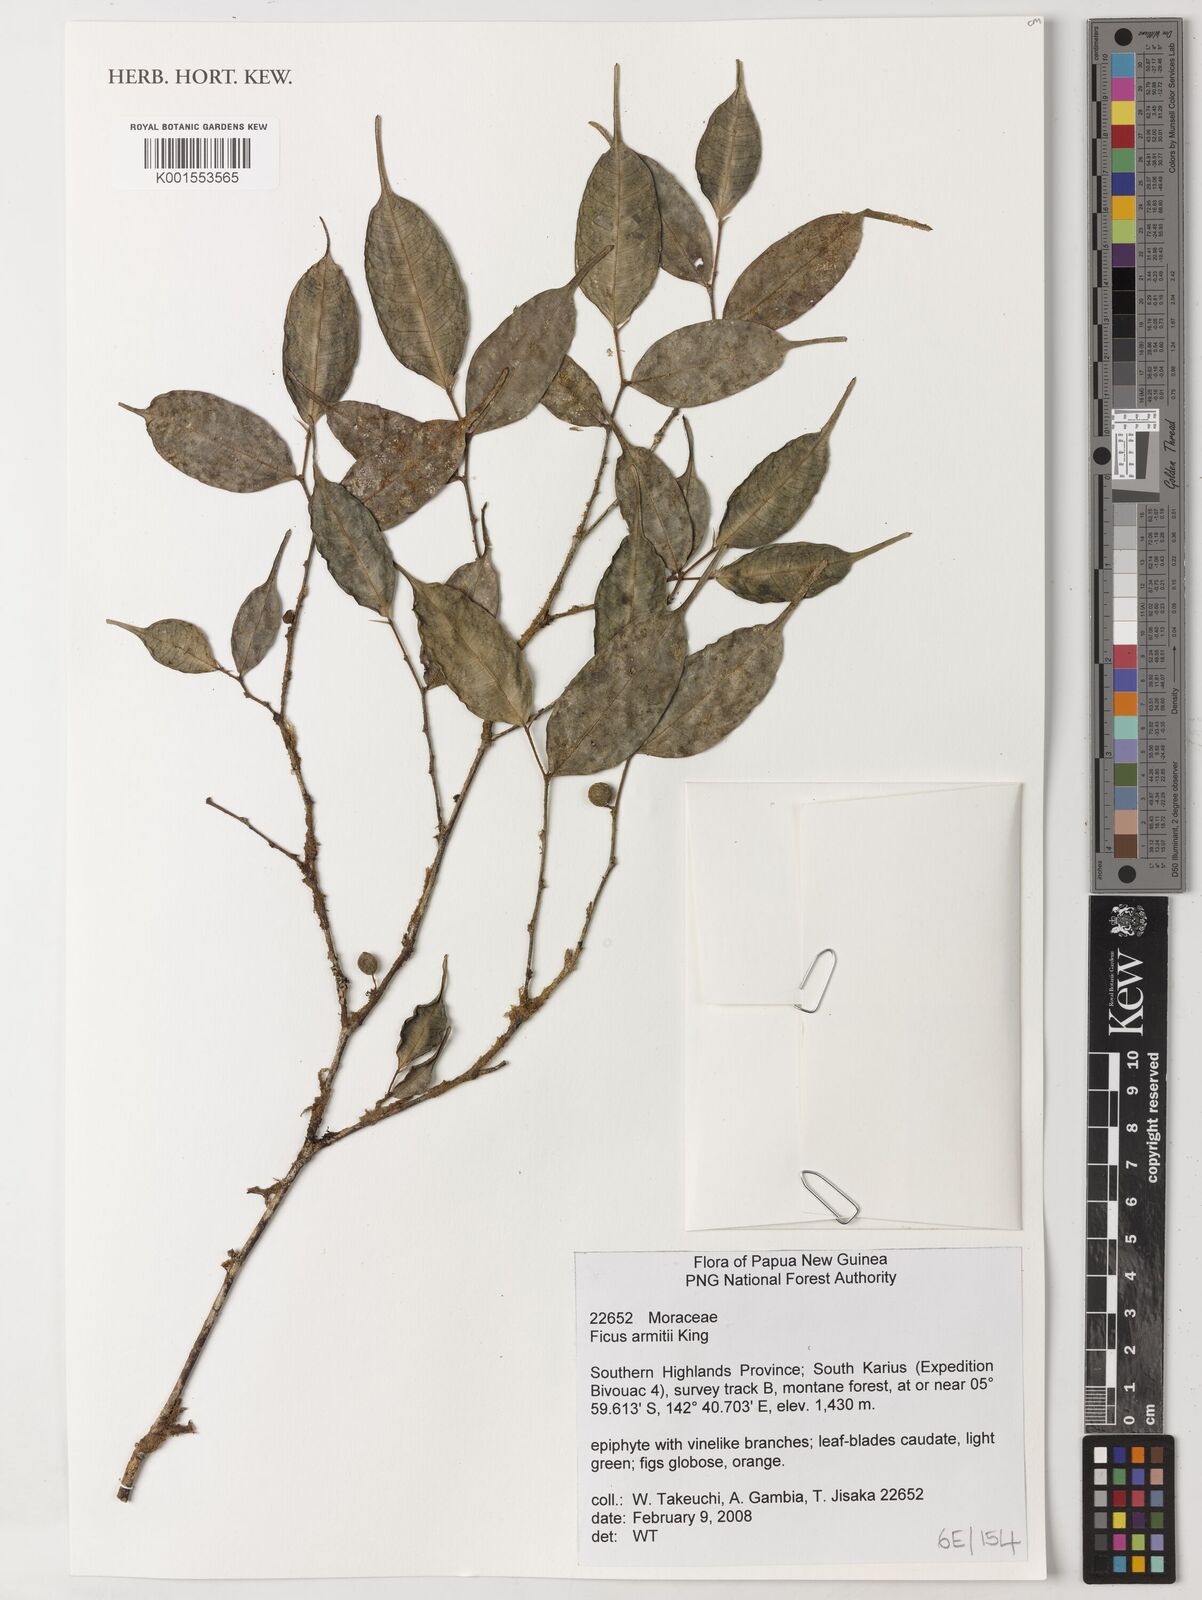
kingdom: Plantae
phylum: Tracheophyta
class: Magnoliopsida
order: Rosales
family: Moraceae
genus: Ficus
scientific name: Ficus armitii
